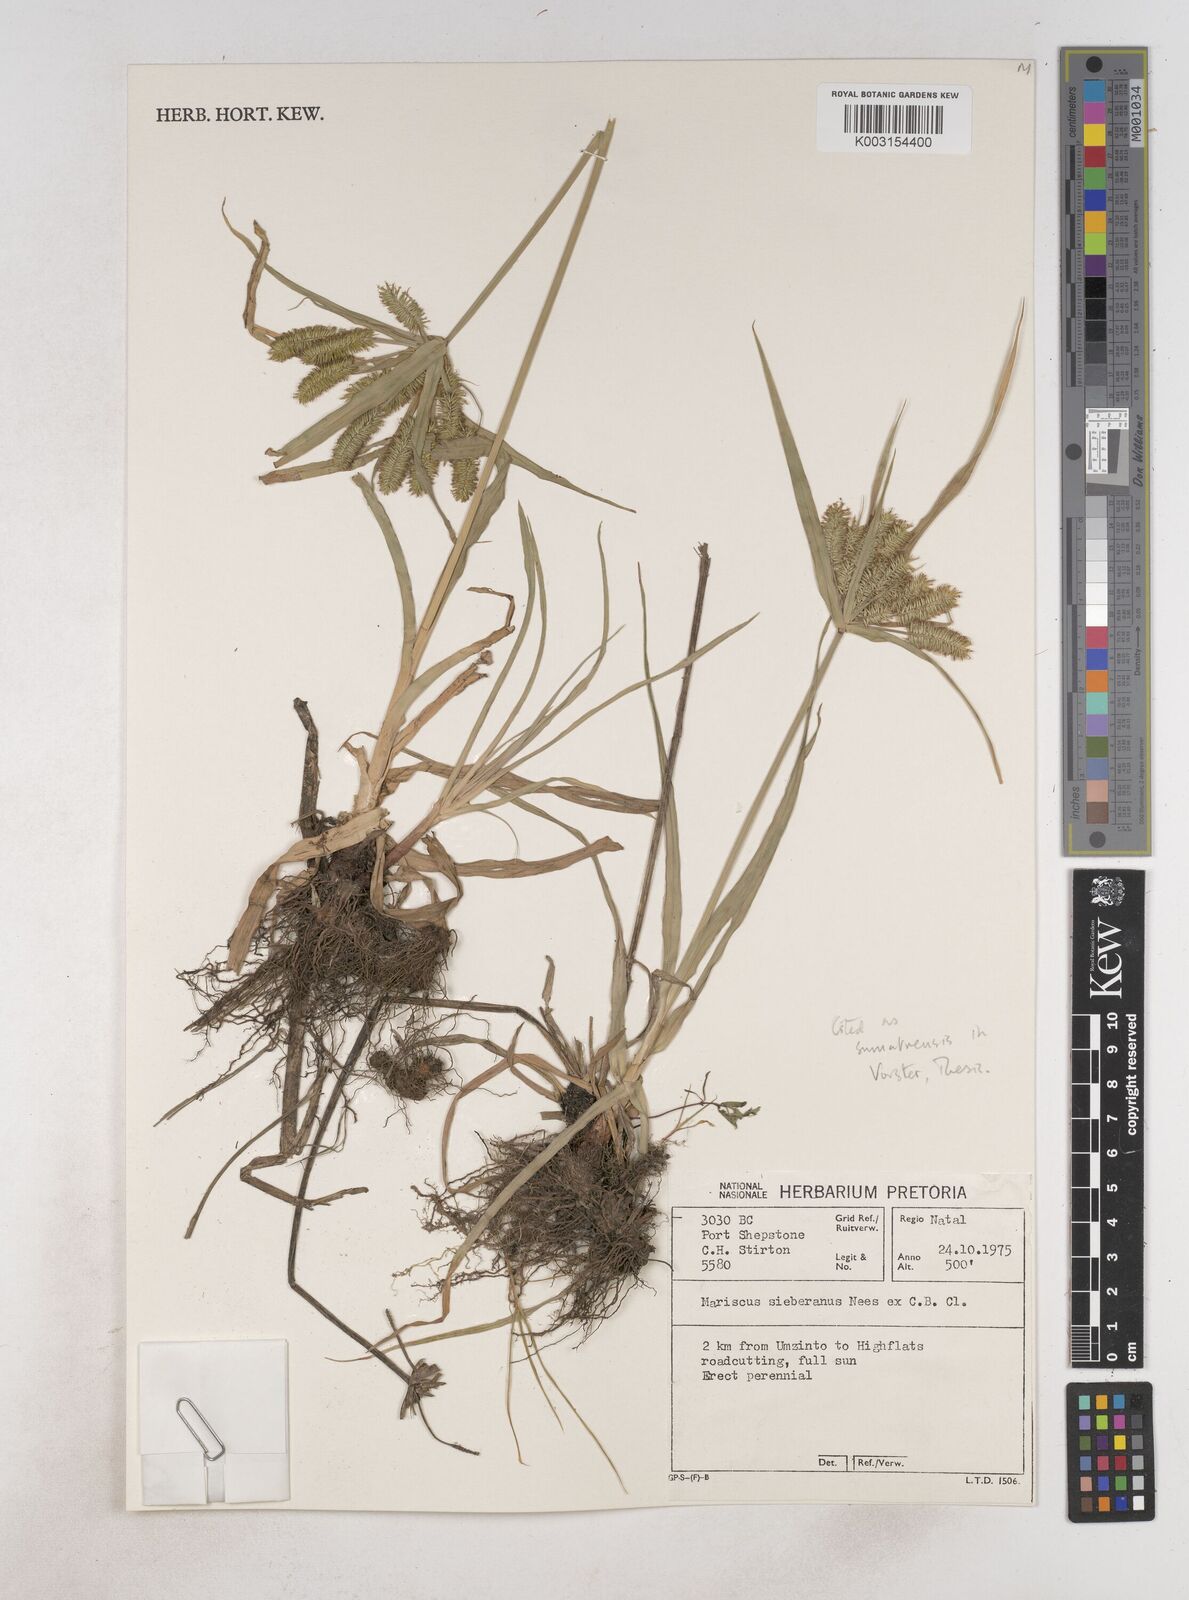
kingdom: Plantae
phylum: Tracheophyta
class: Liliopsida
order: Poales
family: Cyperaceae
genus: Cyperus
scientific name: Cyperus cyperoides
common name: Pacific island flat sedge
